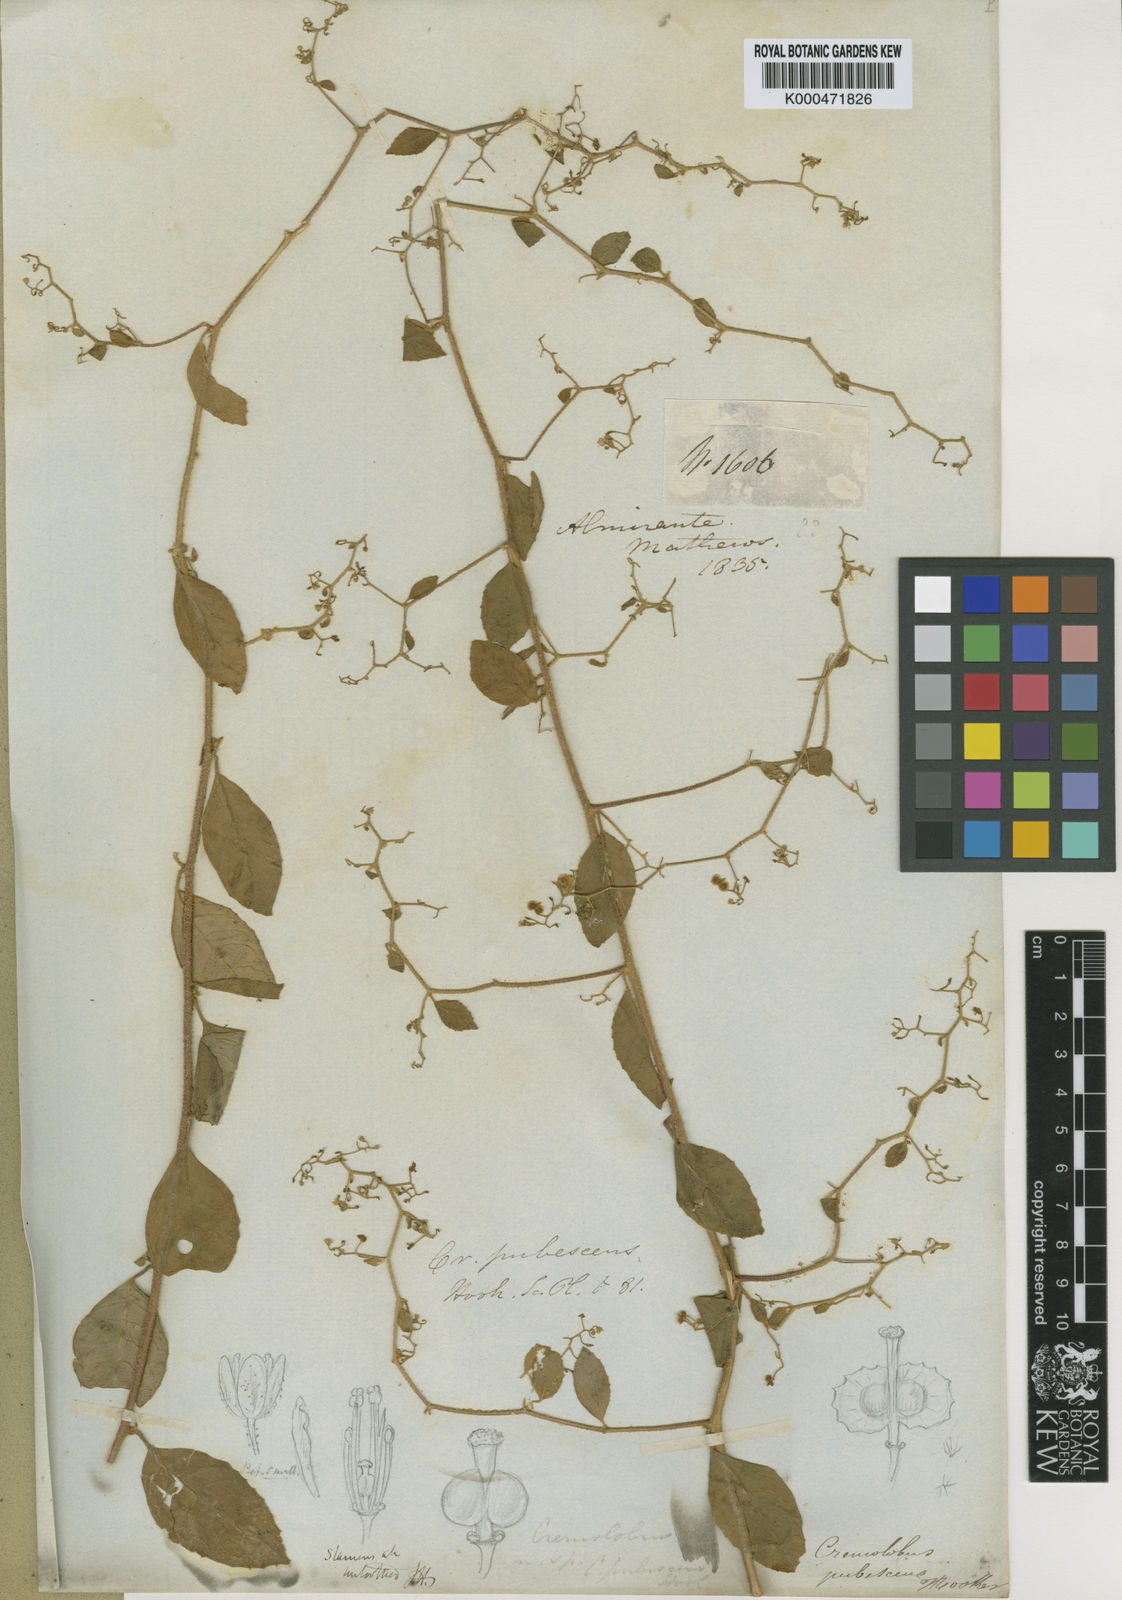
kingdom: Plantae
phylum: Tracheophyta
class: Magnoliopsida
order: Brassicales
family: Brassicaceae
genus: Cremolobus
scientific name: Cremolobus peruvianus
